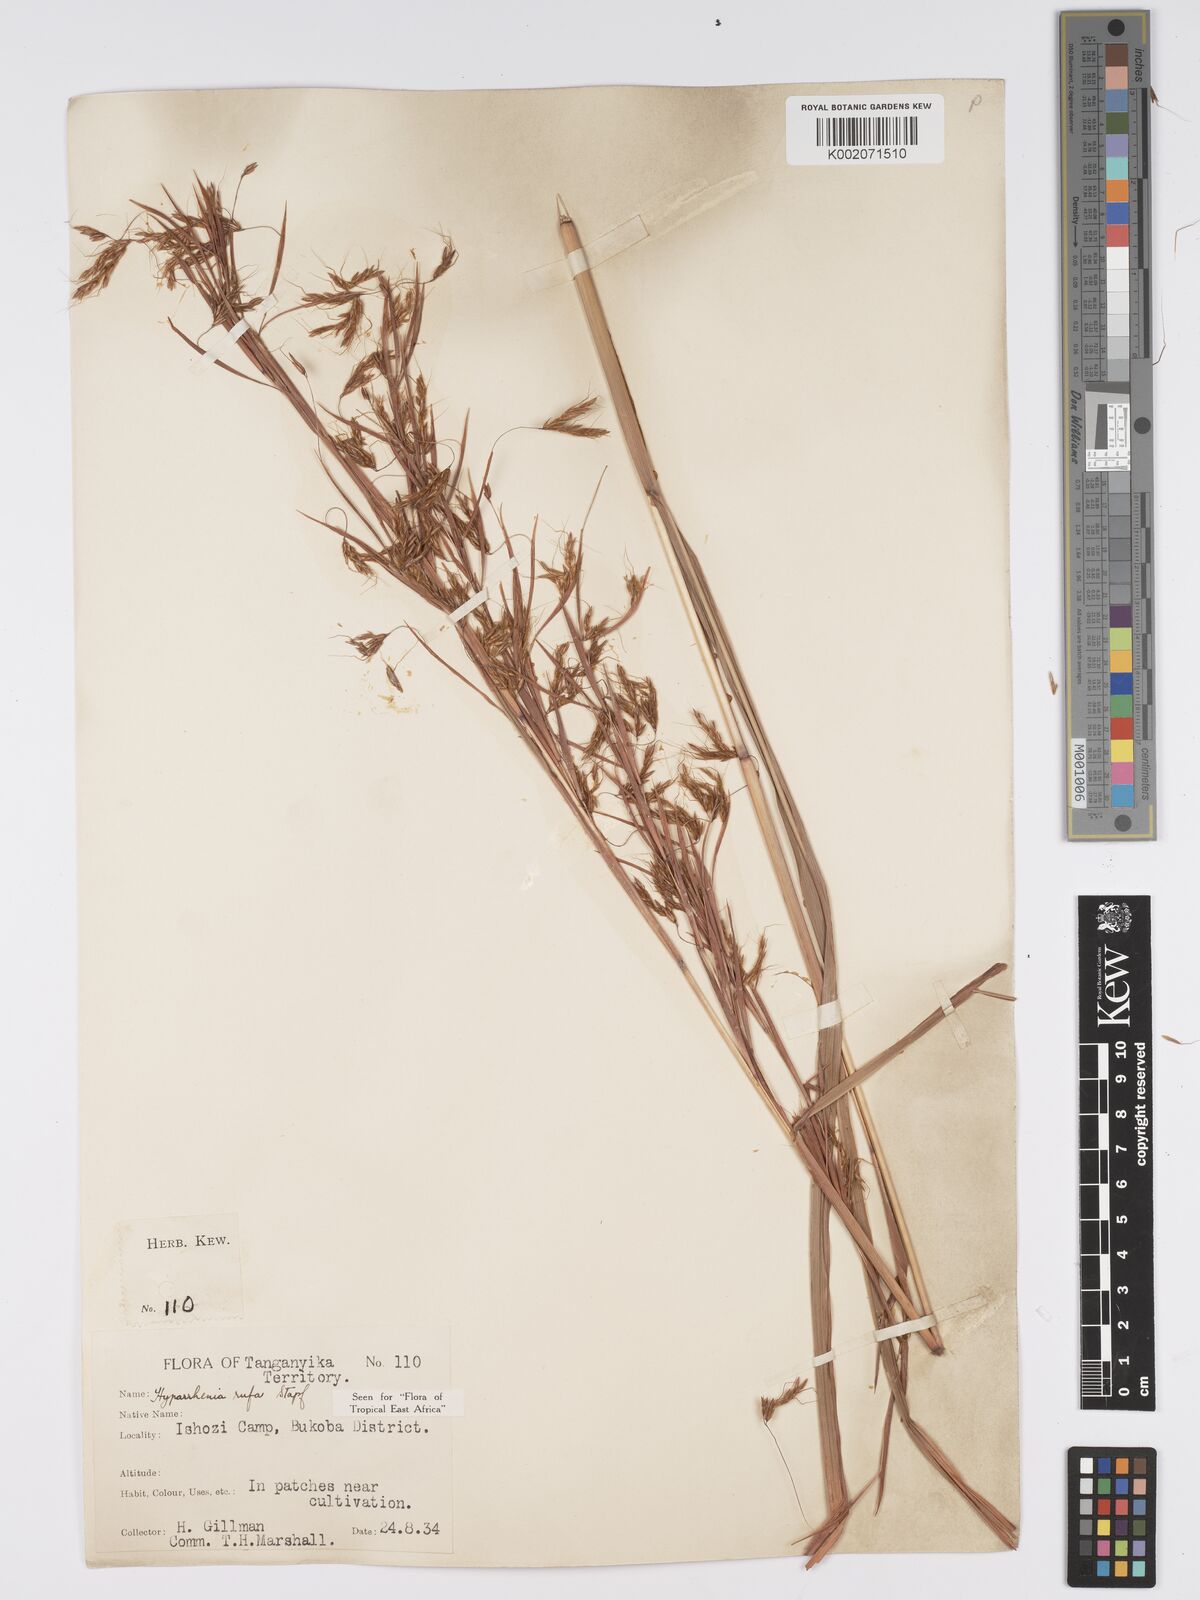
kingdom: Plantae
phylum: Tracheophyta
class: Liliopsida
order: Poales
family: Poaceae
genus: Hyparrhenia
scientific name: Hyparrhenia rufa
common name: Jaraguagrass
